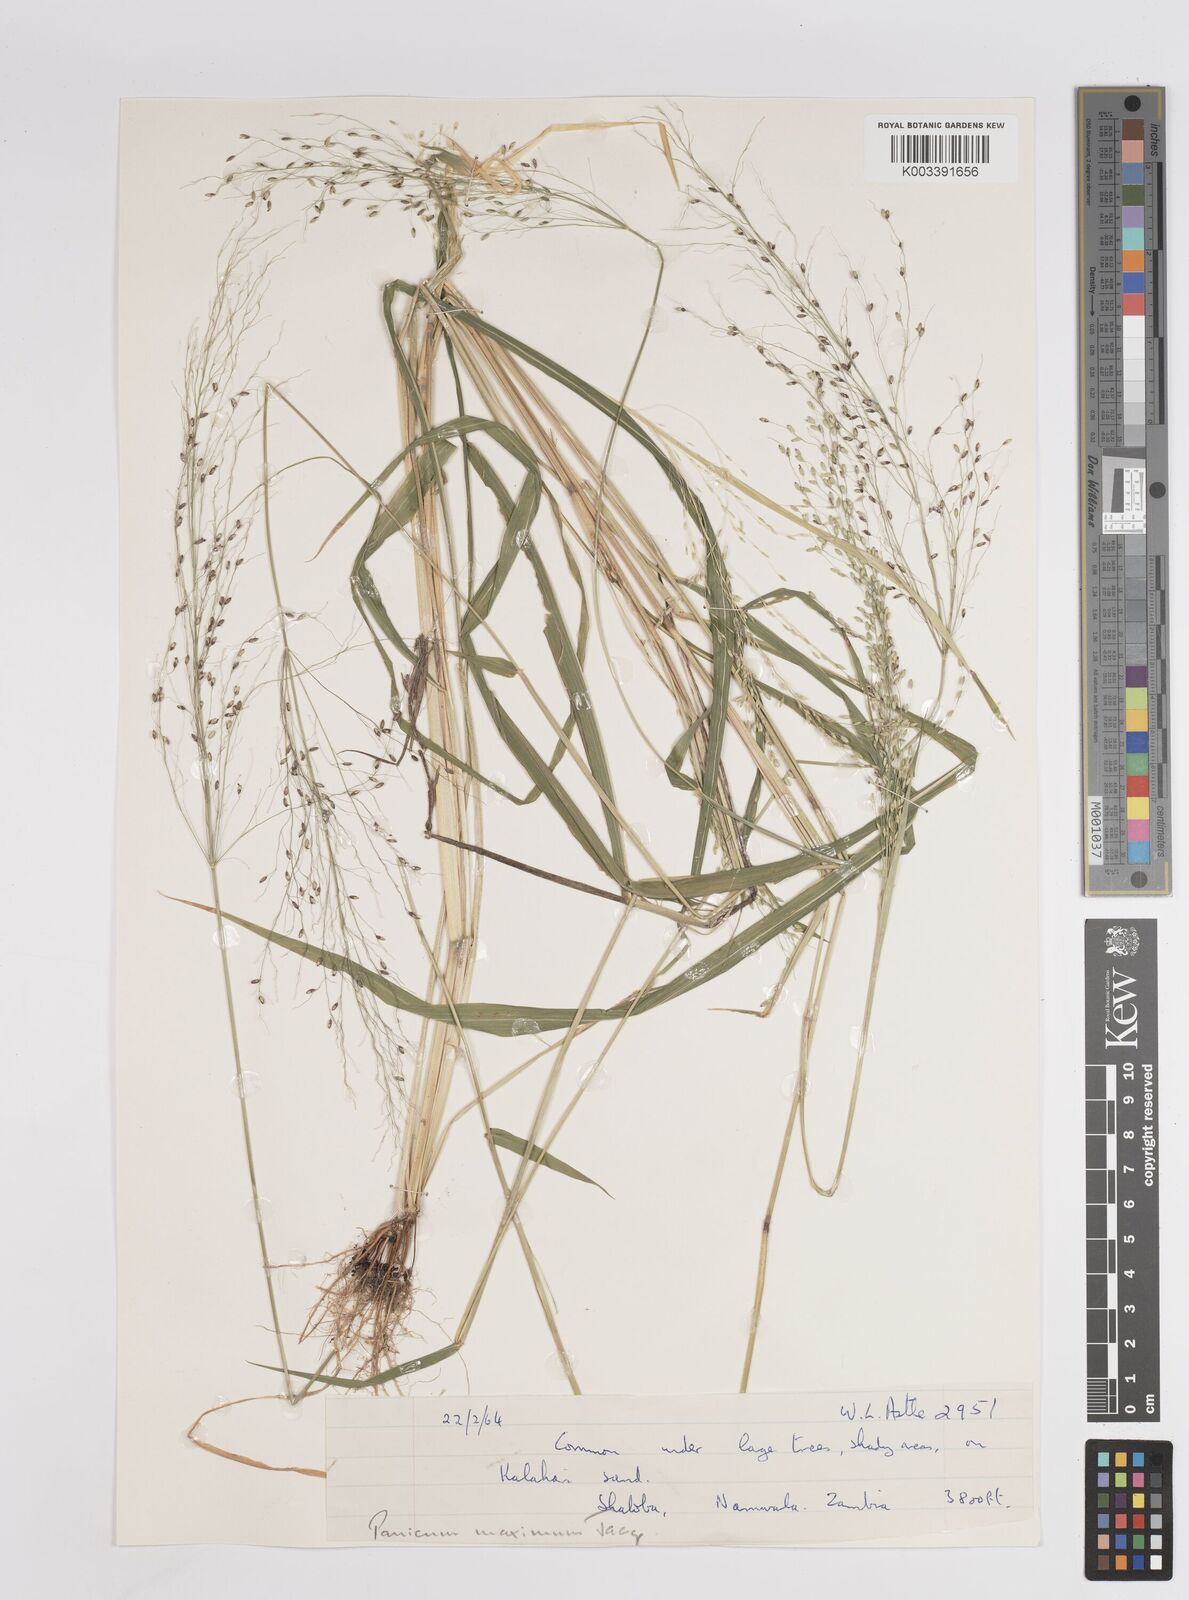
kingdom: Plantae
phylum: Tracheophyta
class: Liliopsida
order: Poales
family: Poaceae
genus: Megathyrsus
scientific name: Megathyrsus maximus
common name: Guineagrass
